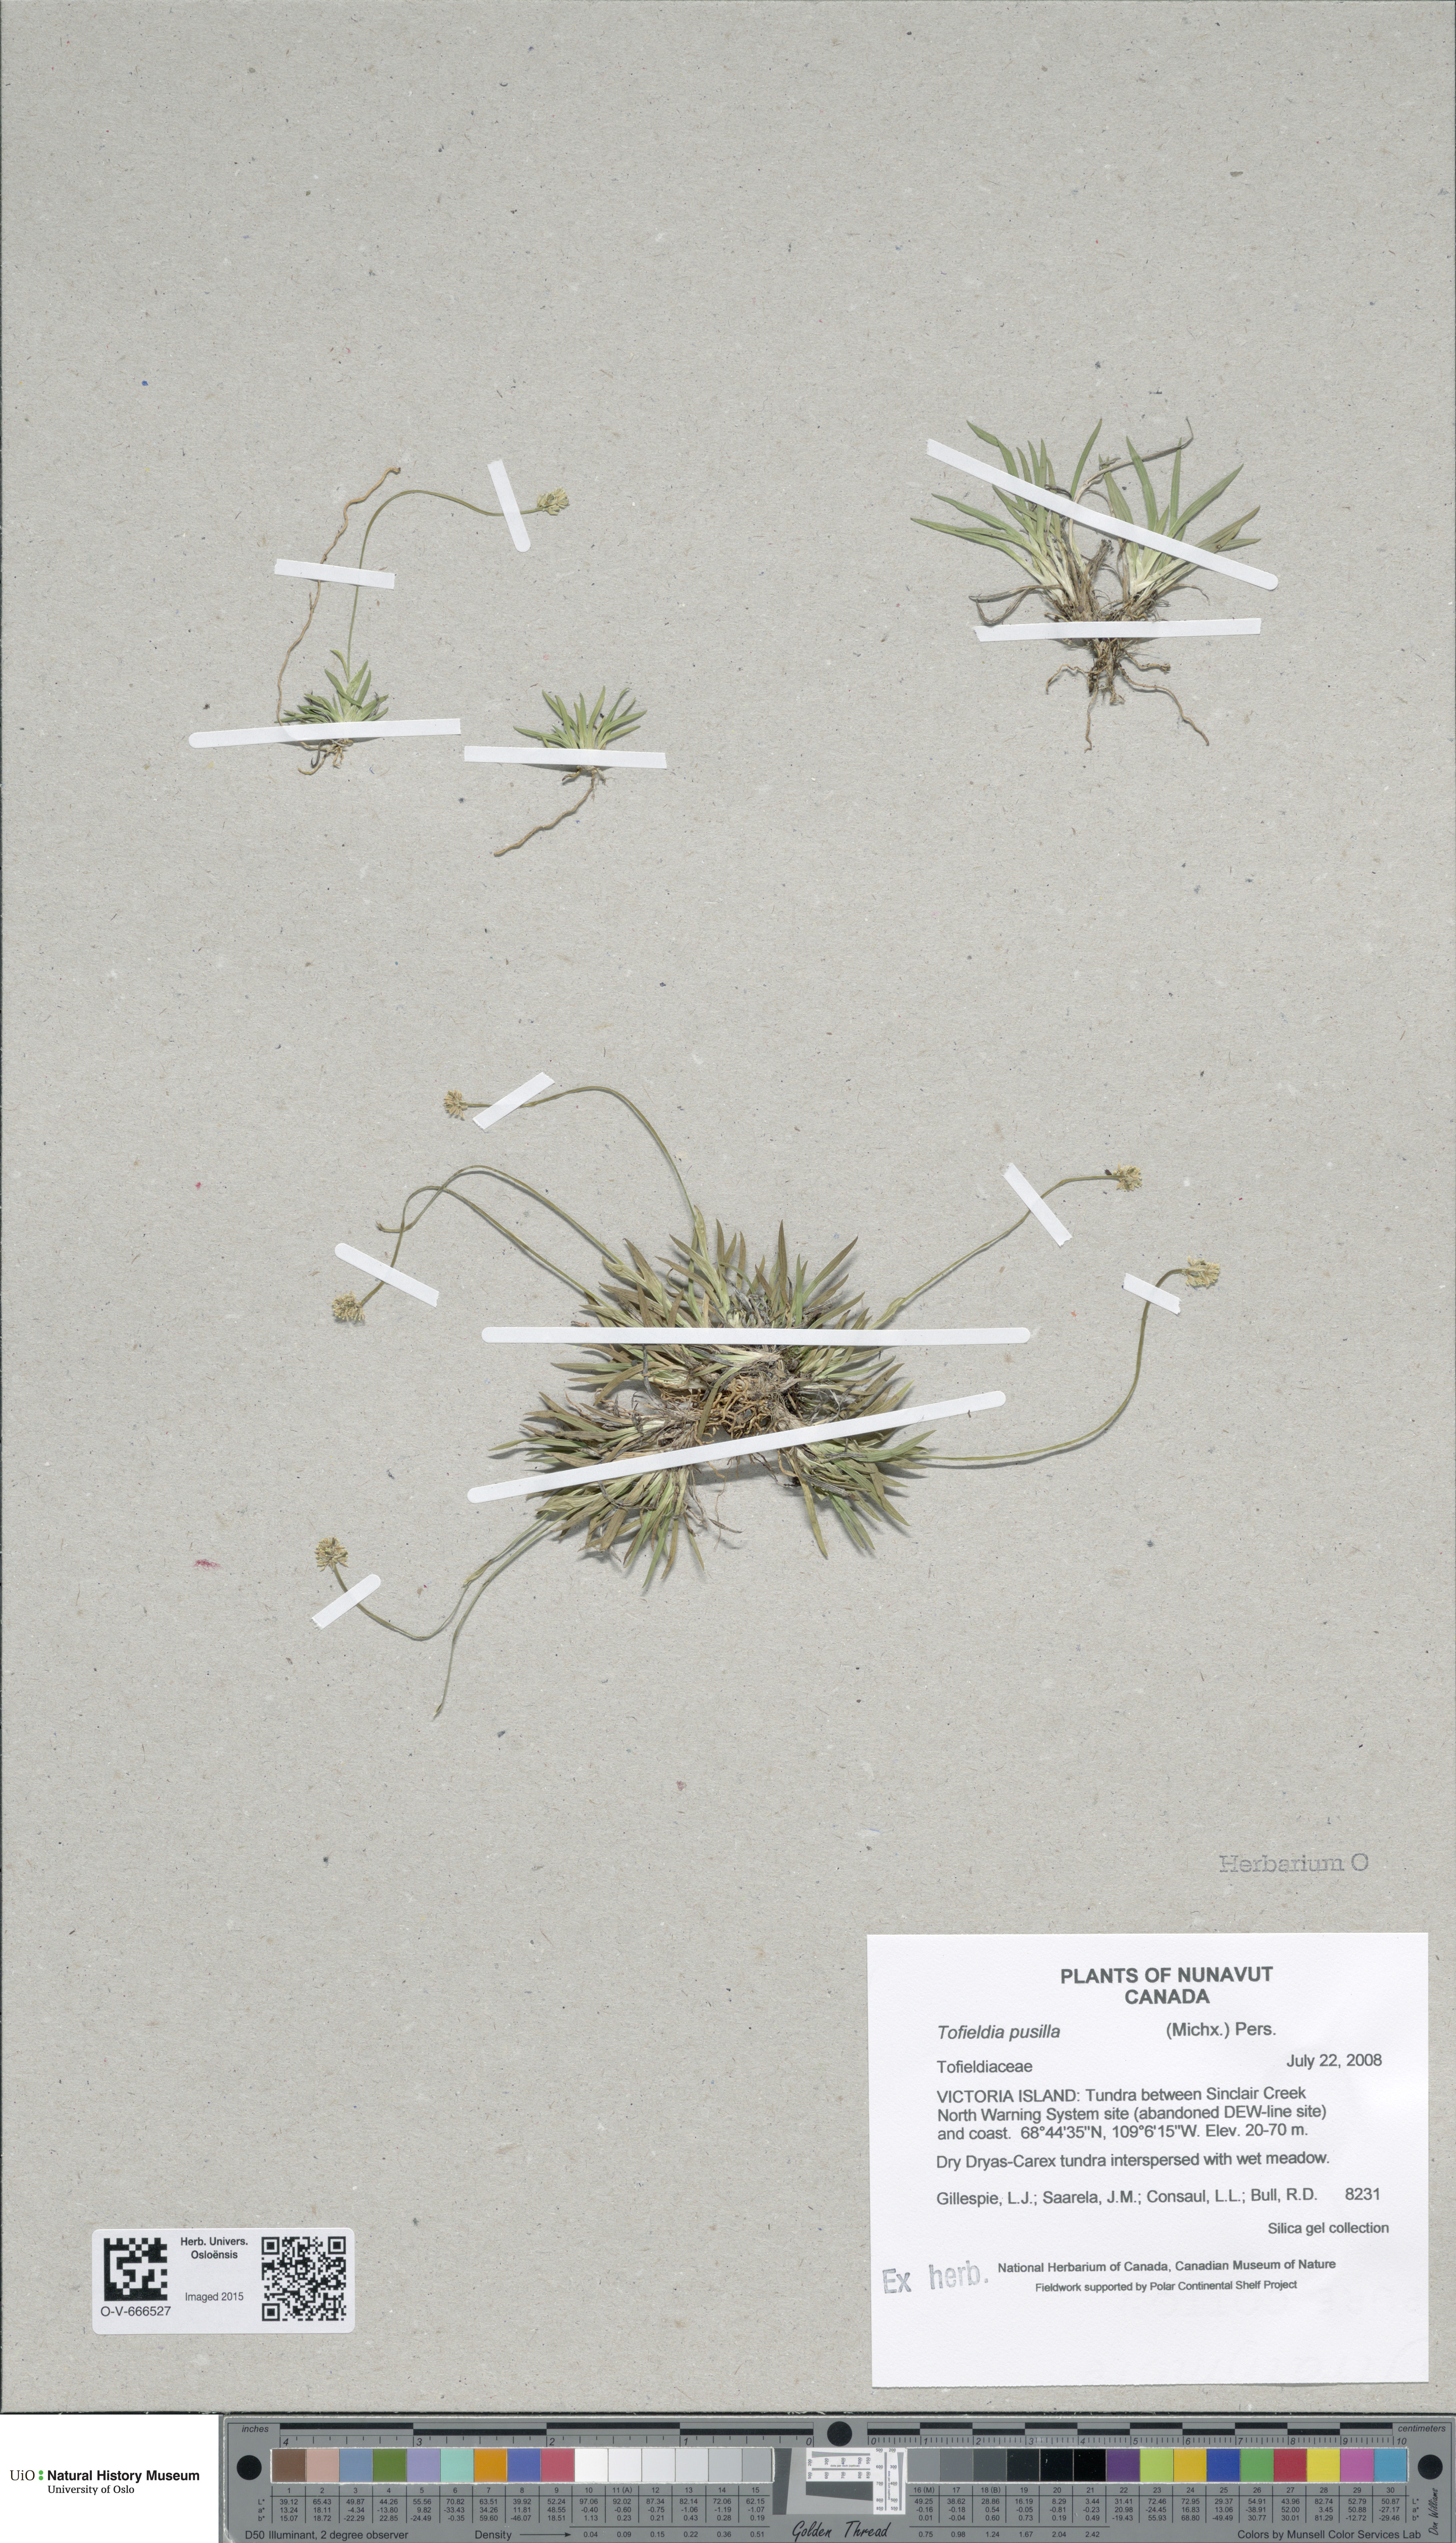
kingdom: Plantae
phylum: Tracheophyta
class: Liliopsida
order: Alismatales
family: Tofieldiaceae
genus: Tofieldia
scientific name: Tofieldia pusilla
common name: Scottish false asphodel
